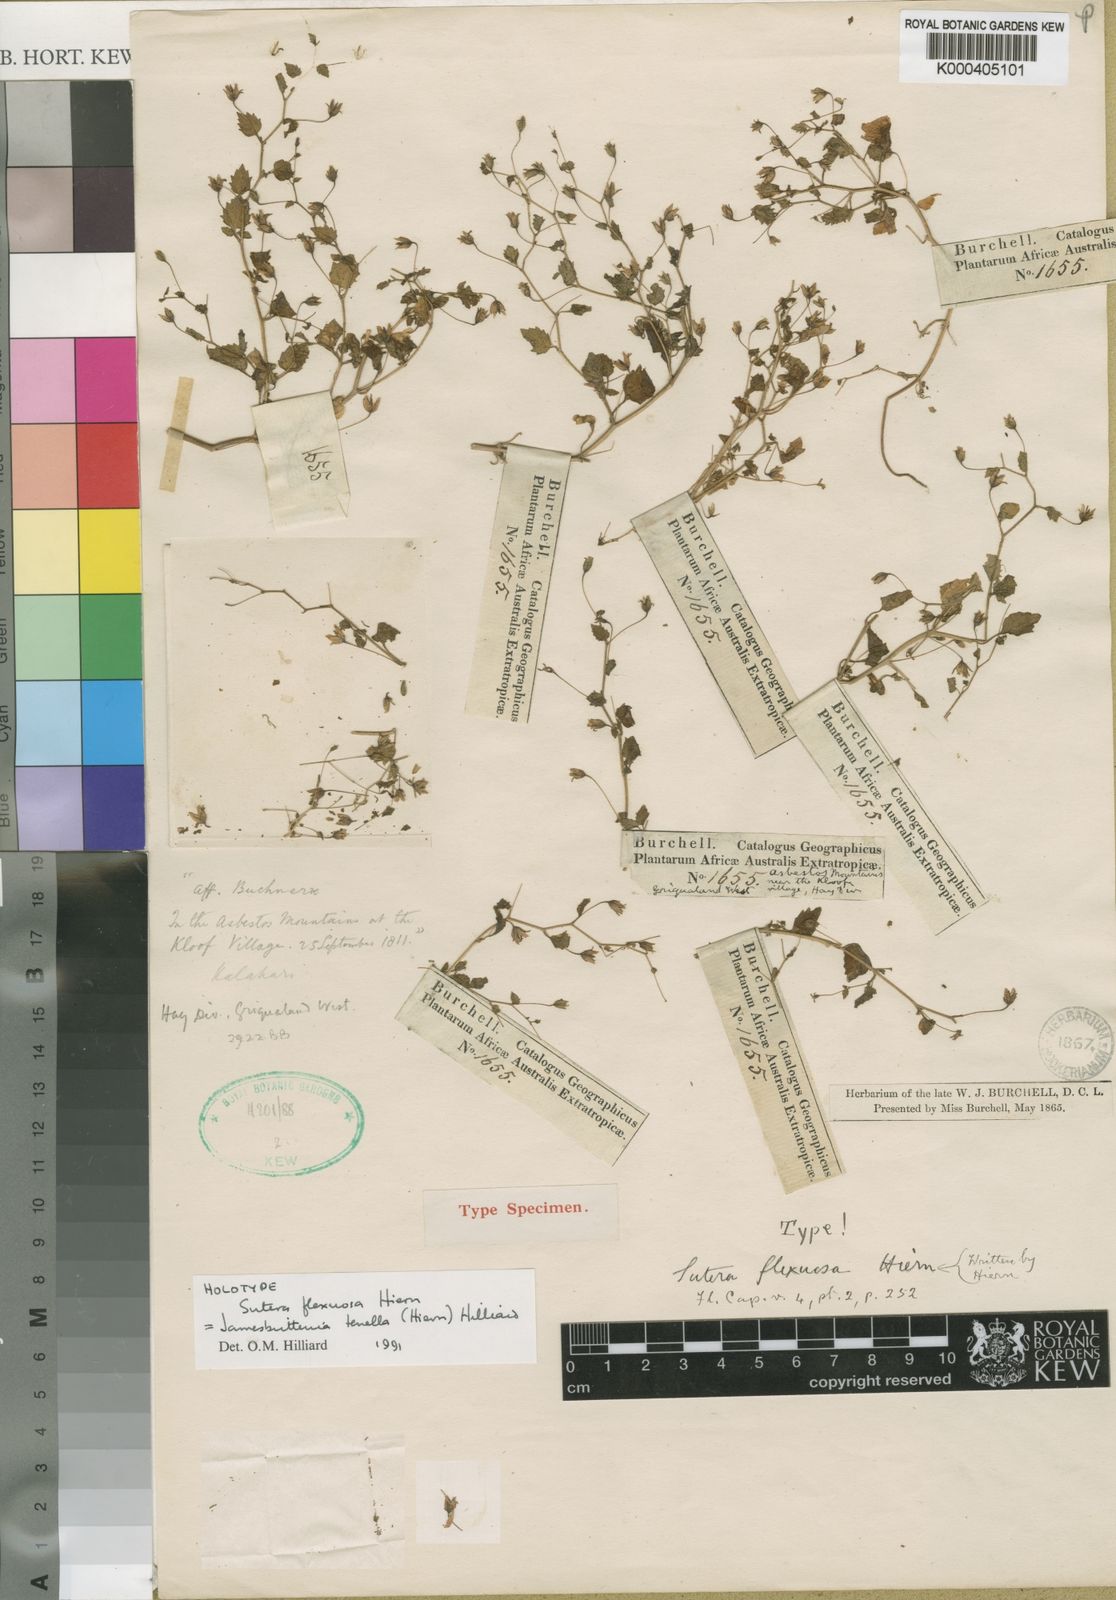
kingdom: Plantae
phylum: Tracheophyta
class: Magnoliopsida
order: Lamiales
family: Scrophulariaceae
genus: Jamesbrittenia
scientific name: Jamesbrittenia tenella
